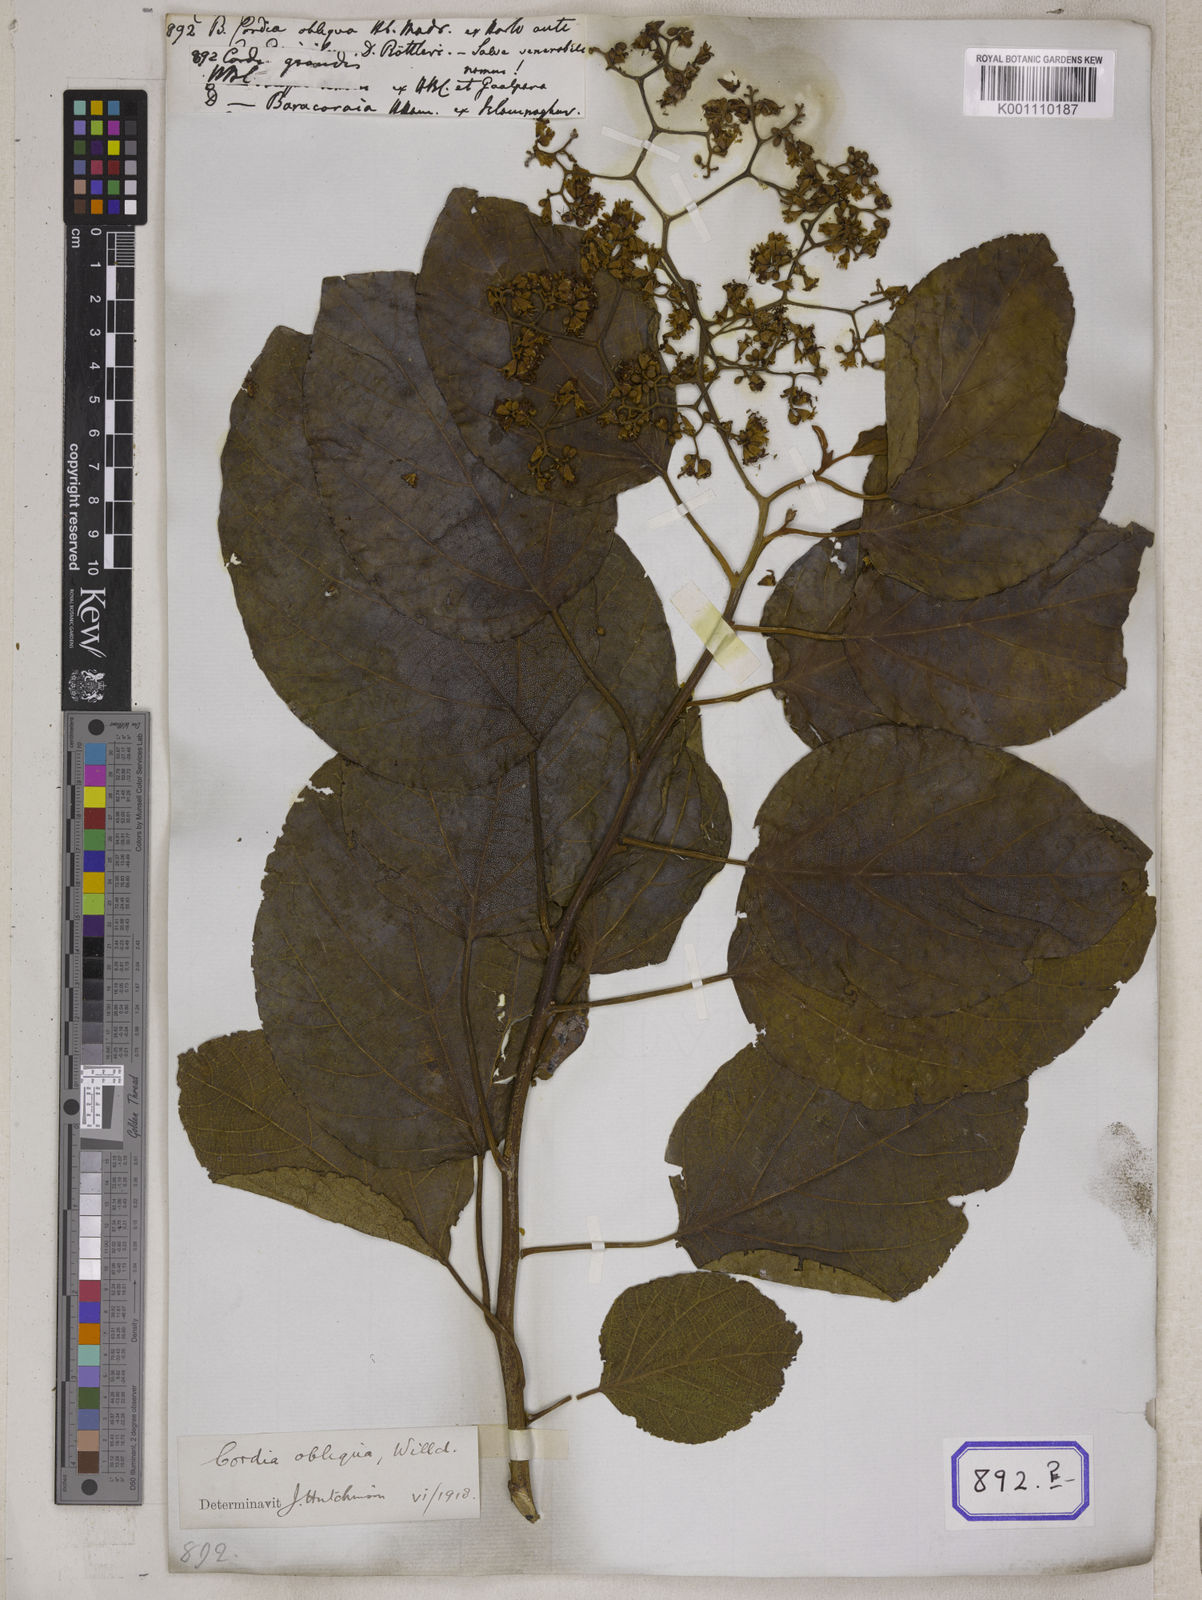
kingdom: Plantae
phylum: Tracheophyta
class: Magnoliopsida
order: Boraginales
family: Cordiaceae
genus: Cordia
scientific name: Cordia
